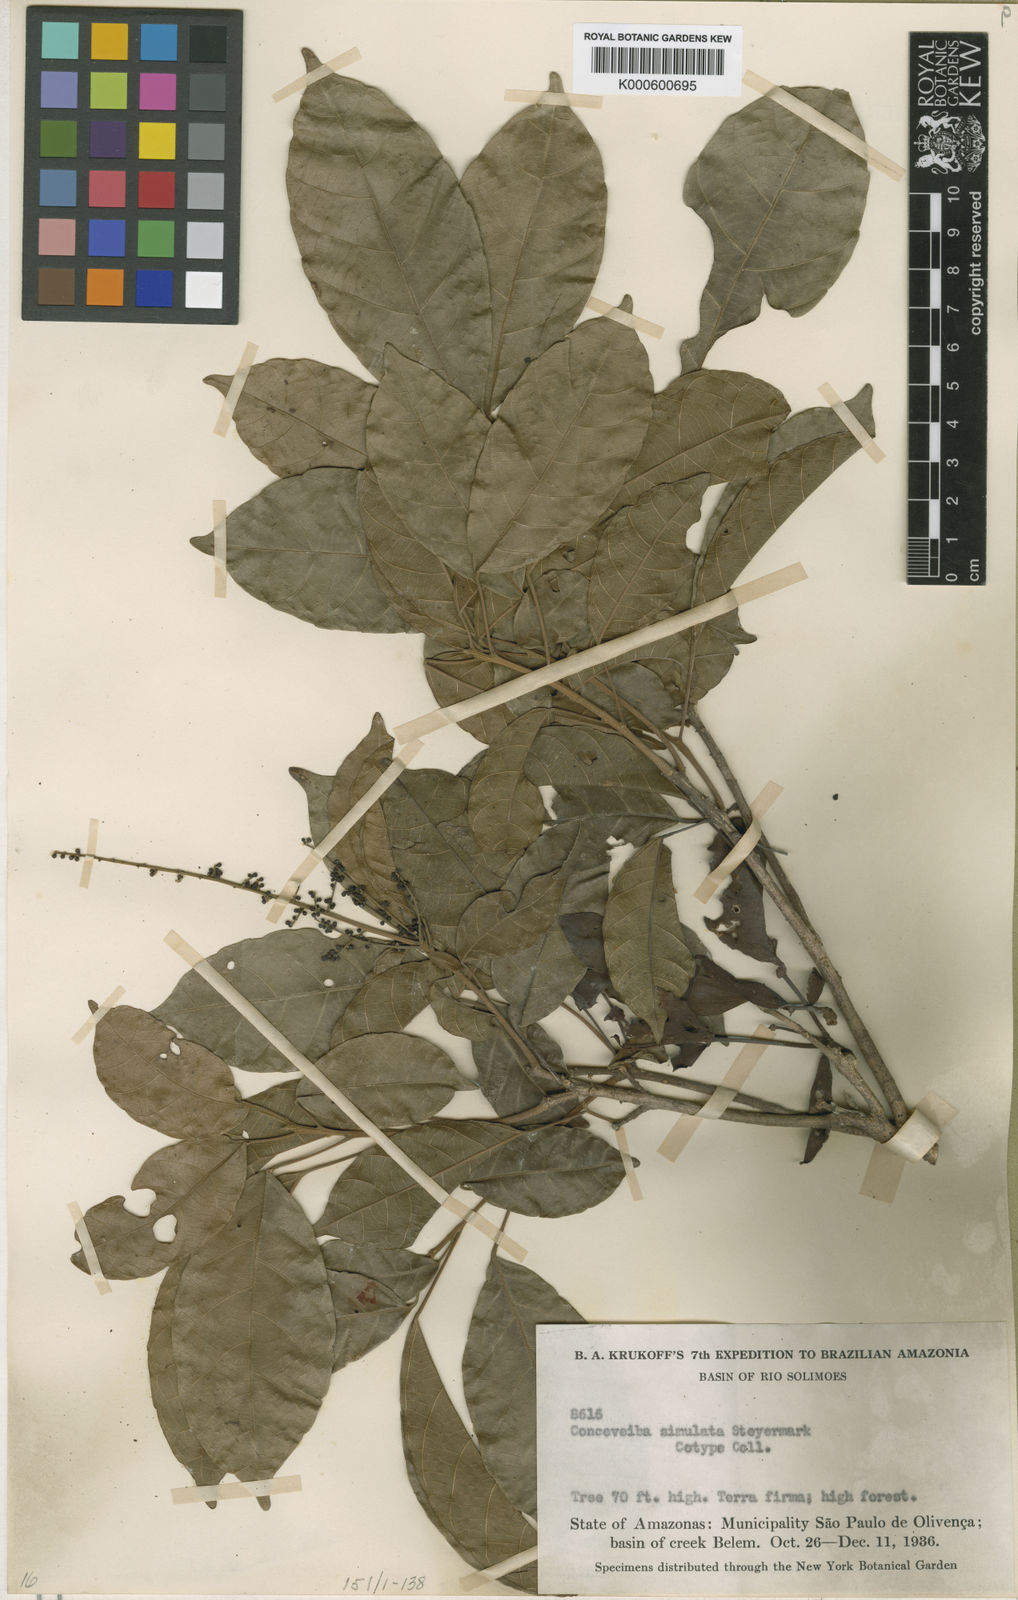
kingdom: Plantae
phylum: Tracheophyta
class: Magnoliopsida
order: Malpighiales
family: Euphorbiaceae
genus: Conceveiba
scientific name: Conceveiba krukoffii
